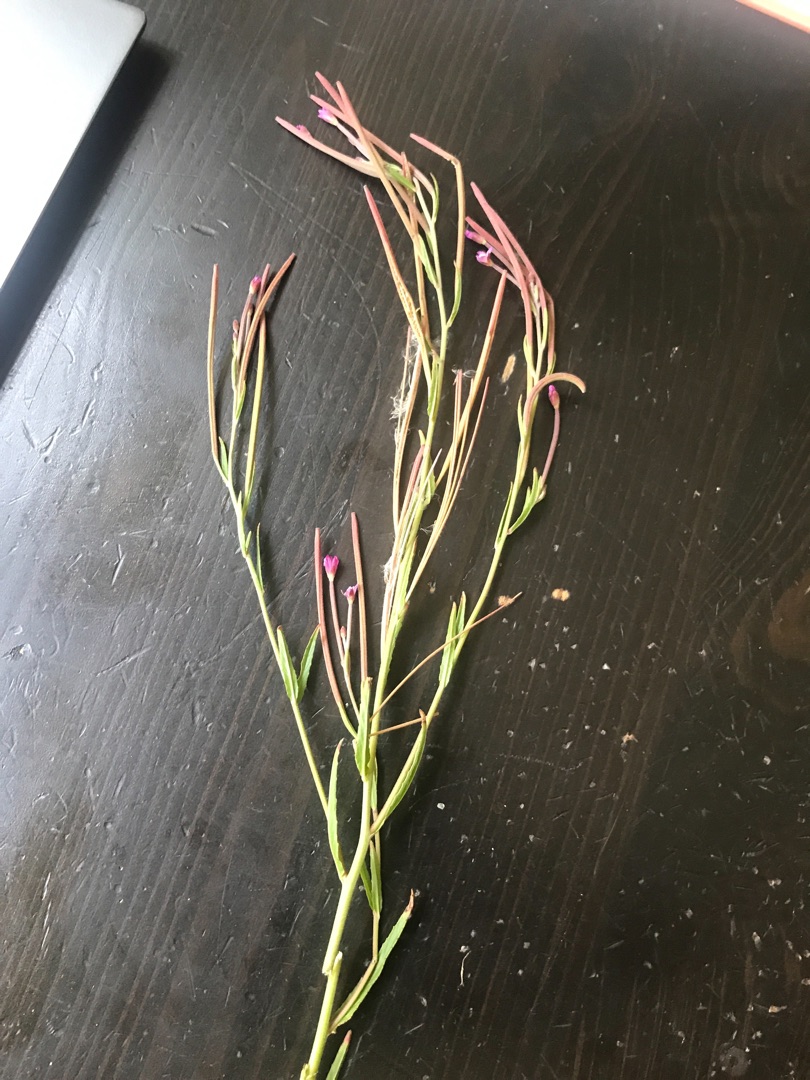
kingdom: Plantae
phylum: Tracheophyta
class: Magnoliopsida
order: Myrtales
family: Onagraceae
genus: Epilobium
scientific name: Epilobium tetragonum
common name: Kantet dueurt
